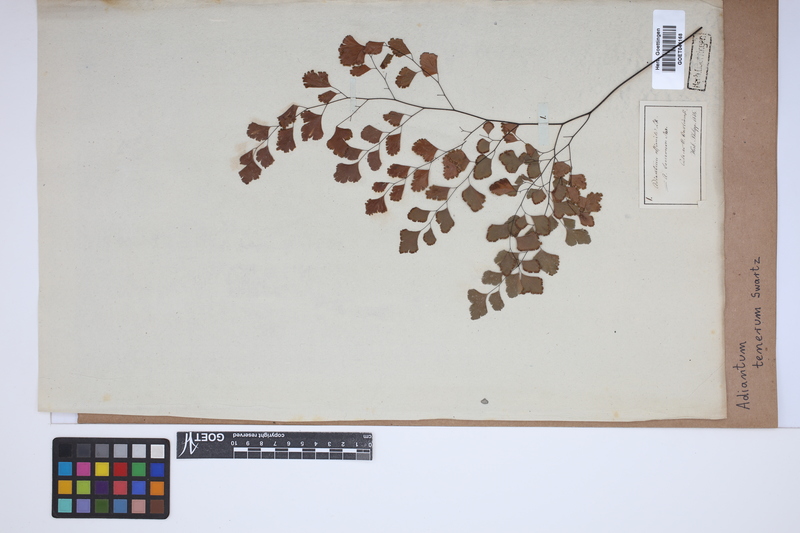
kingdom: Plantae
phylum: Tracheophyta
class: Polypodiopsida
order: Polypodiales
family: Pteridaceae
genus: Adiantum
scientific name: Adiantum tenerum
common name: Fan maidenhair
